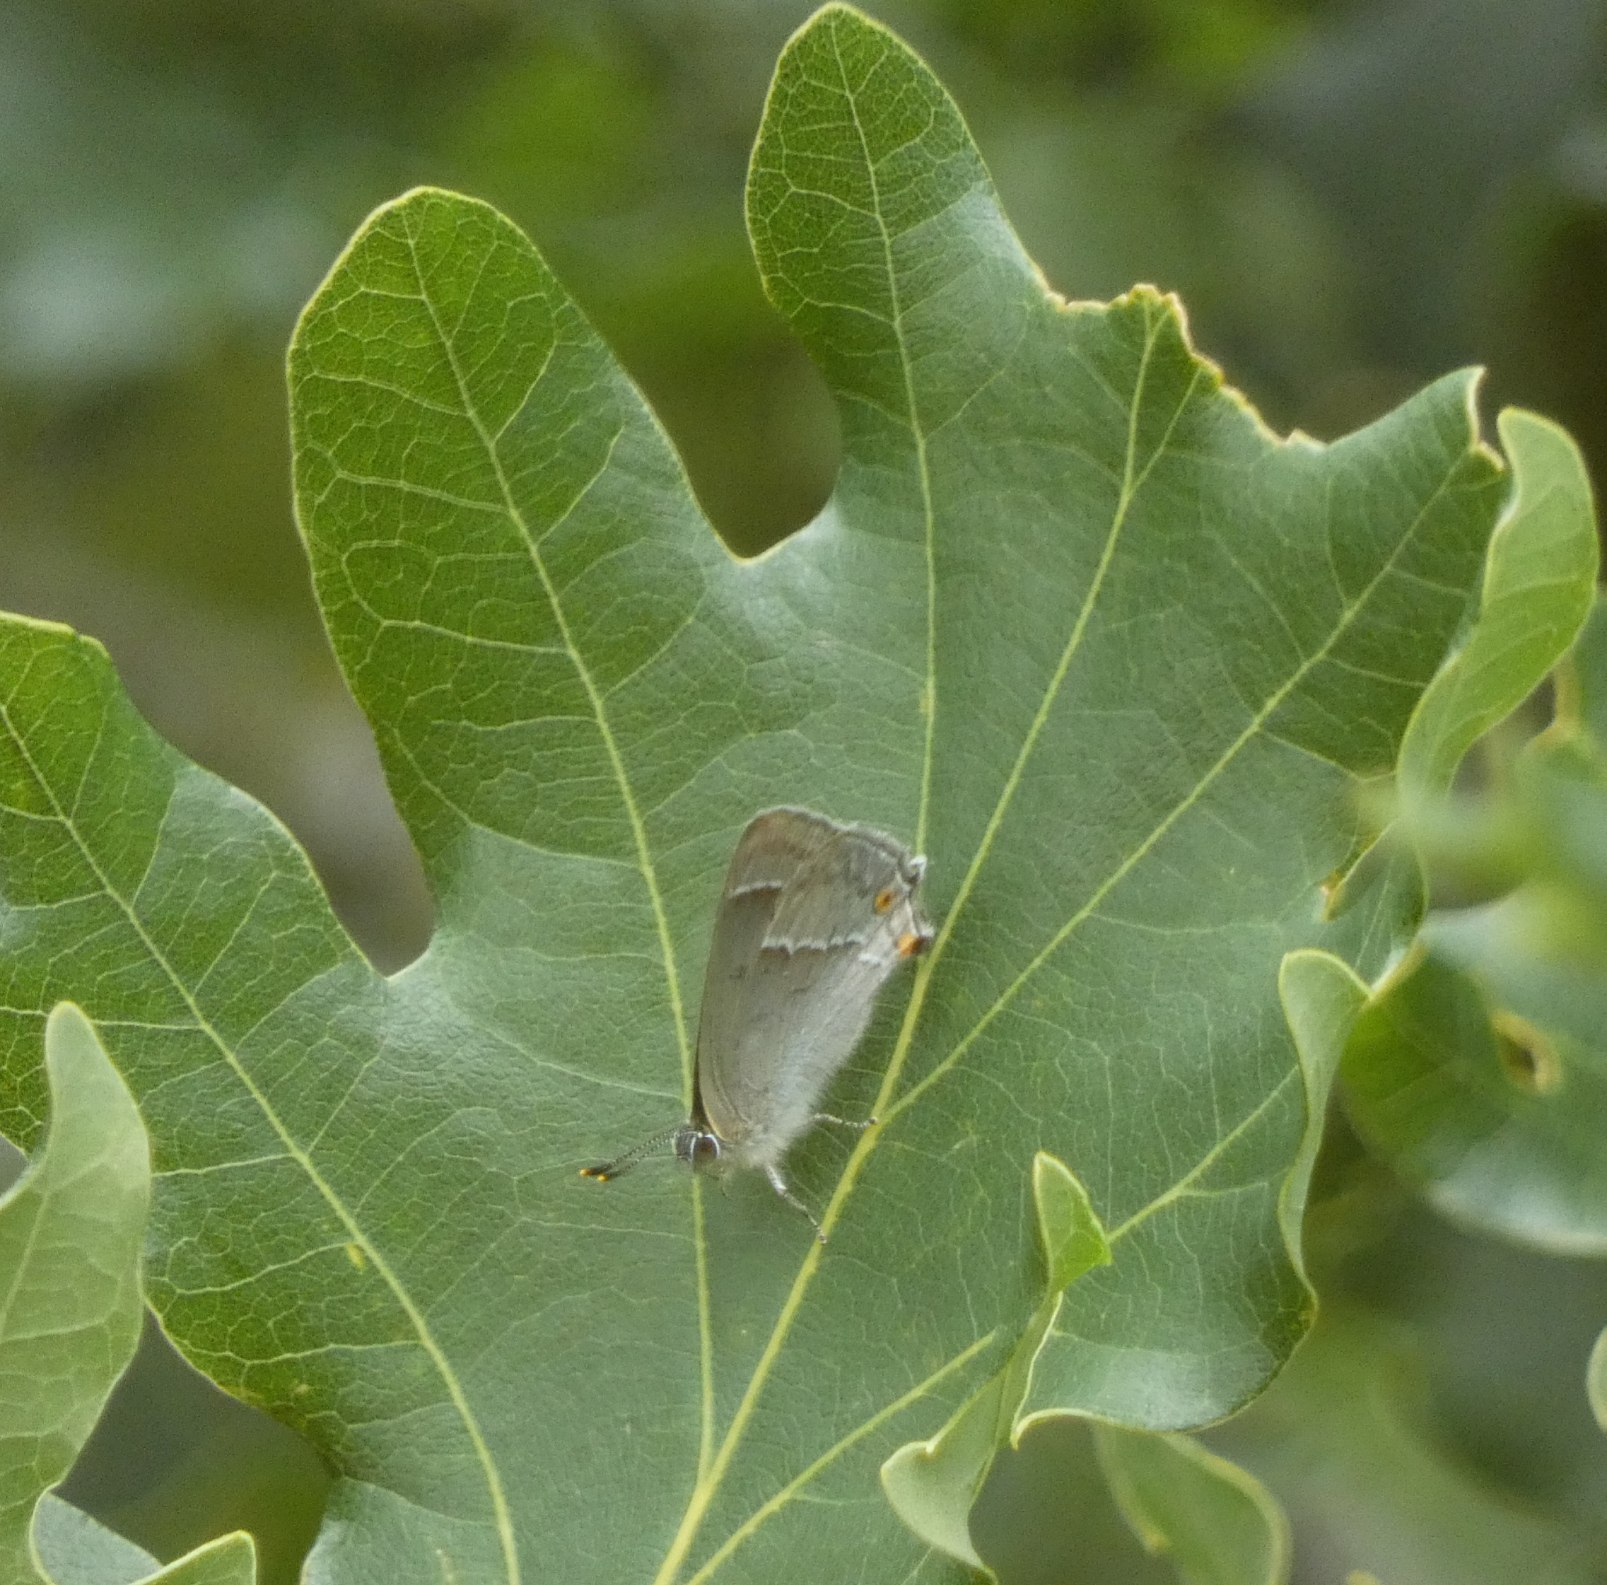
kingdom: Animalia
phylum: Arthropoda
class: Insecta
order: Lepidoptera
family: Lycaenidae
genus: Quercusia
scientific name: Quercusia quercus
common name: Blåhale
